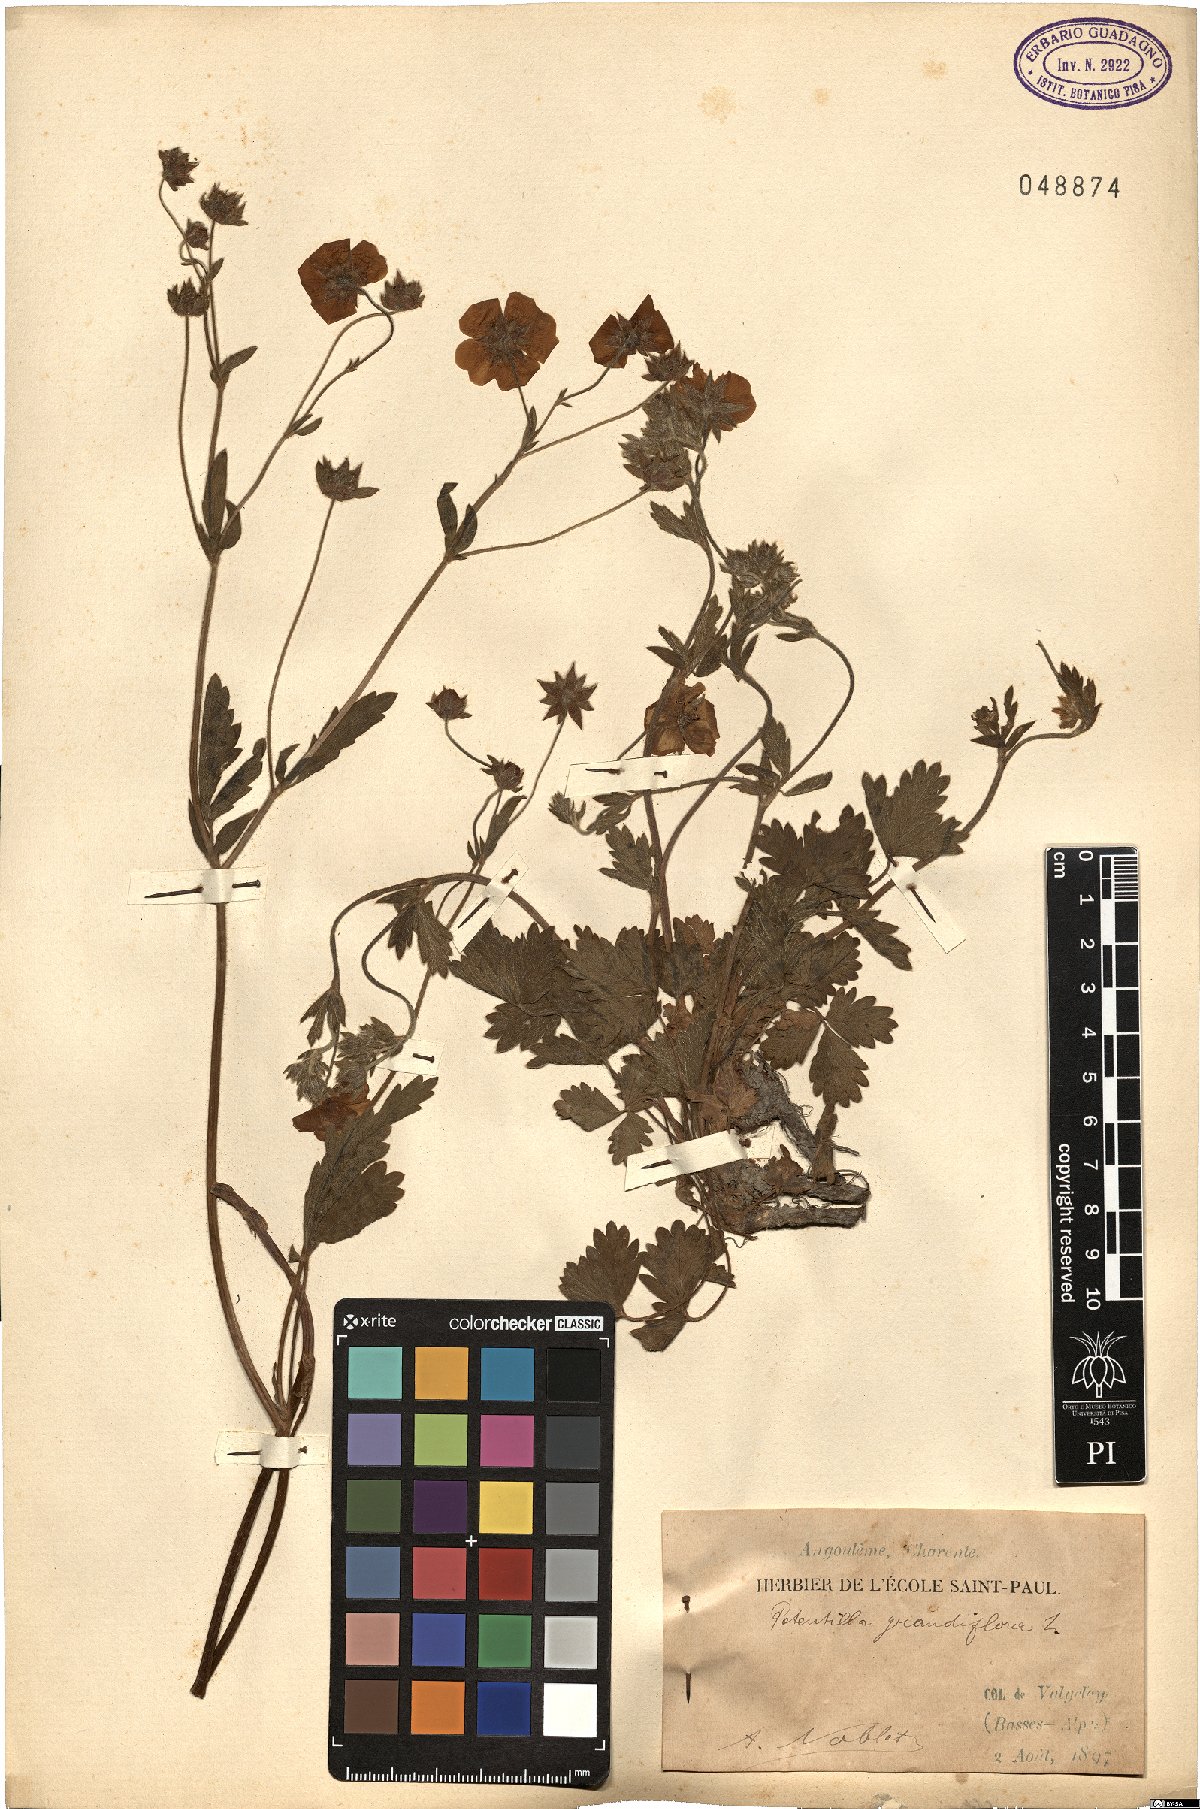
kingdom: Plantae
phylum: Tracheophyta
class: Magnoliopsida
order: Rosales
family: Rosaceae
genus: Potentilla
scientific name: Potentilla grandiflora
